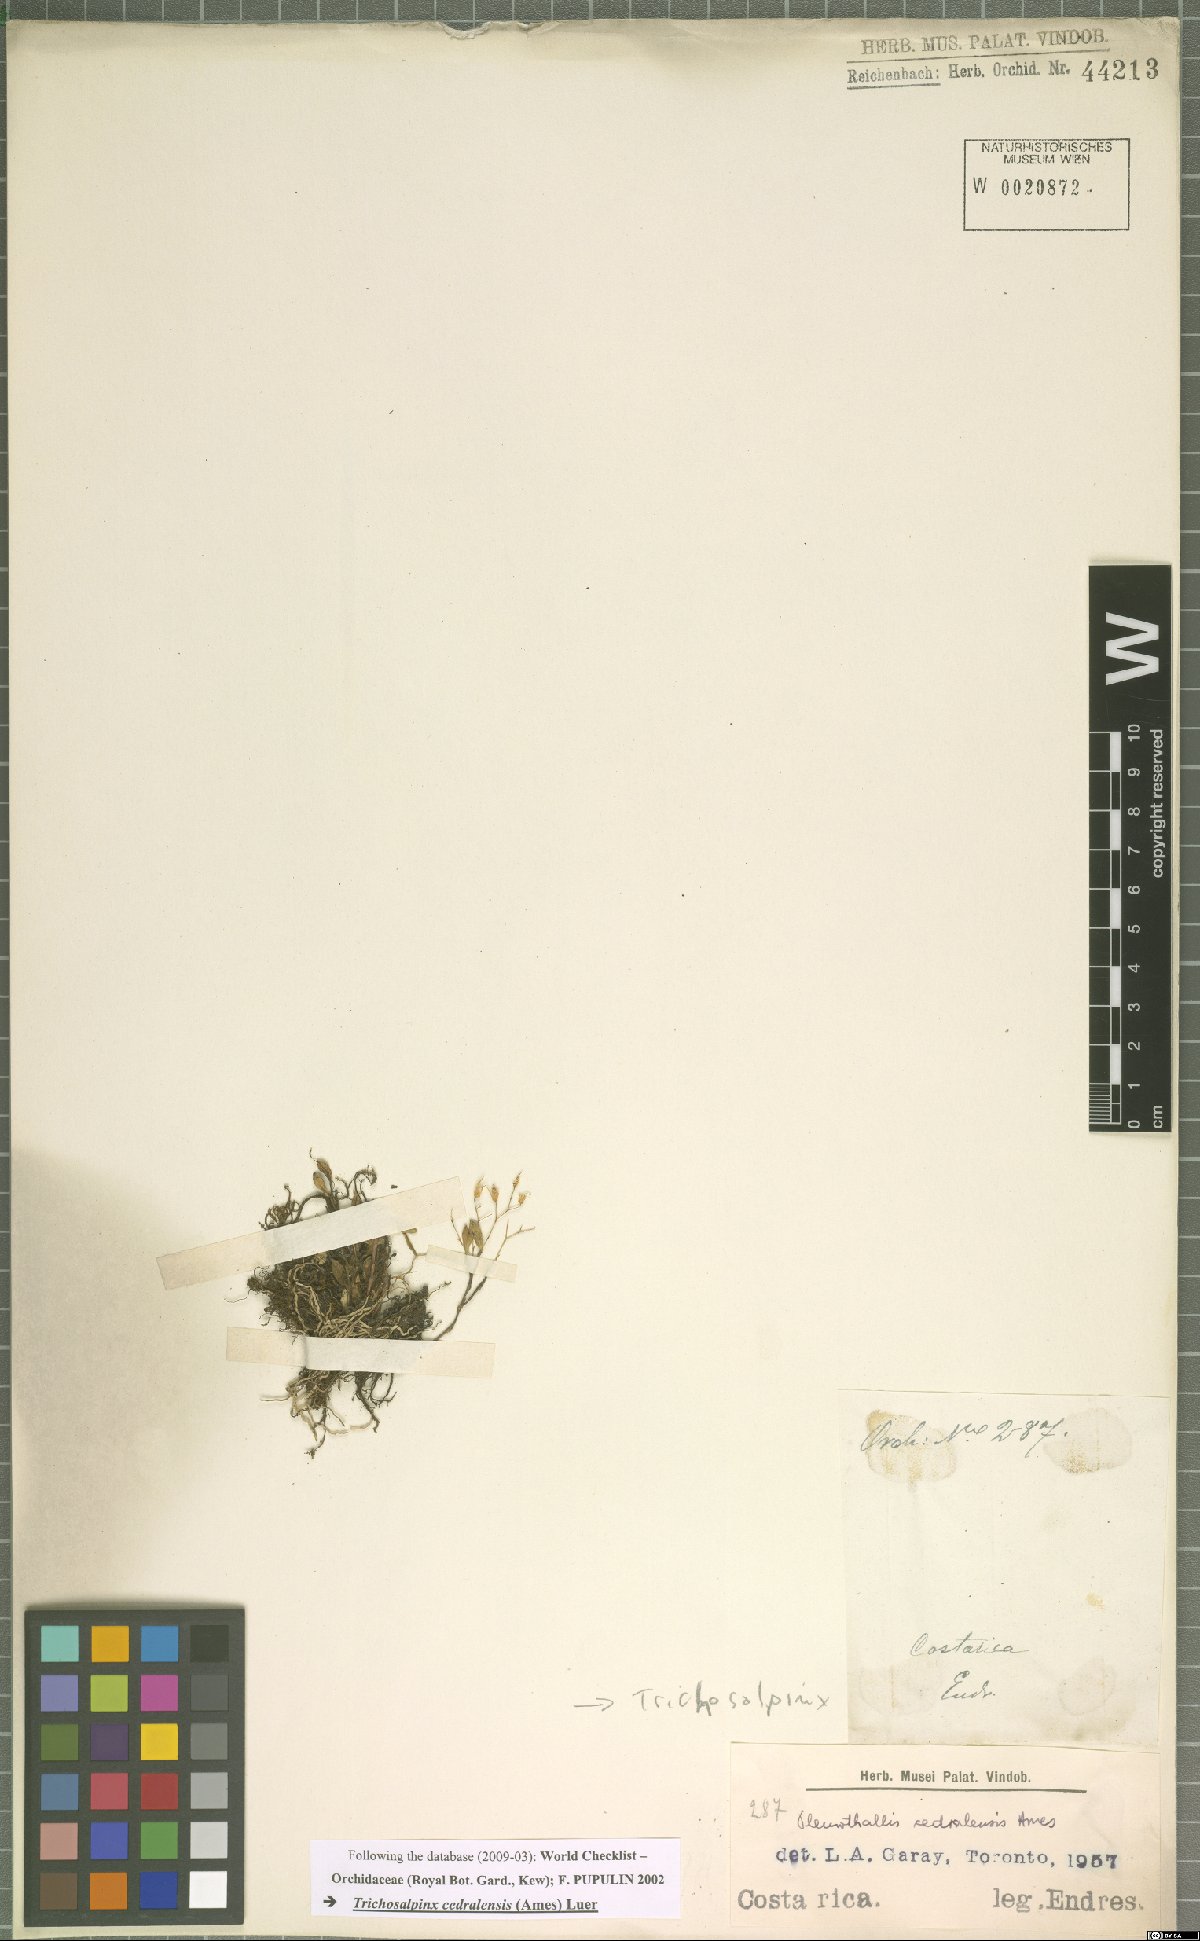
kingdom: Plantae
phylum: Tracheophyta
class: Liliopsida
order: Asparagales
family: Orchidaceae
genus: Trichosalpinx
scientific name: Trichosalpinx cedralensis
